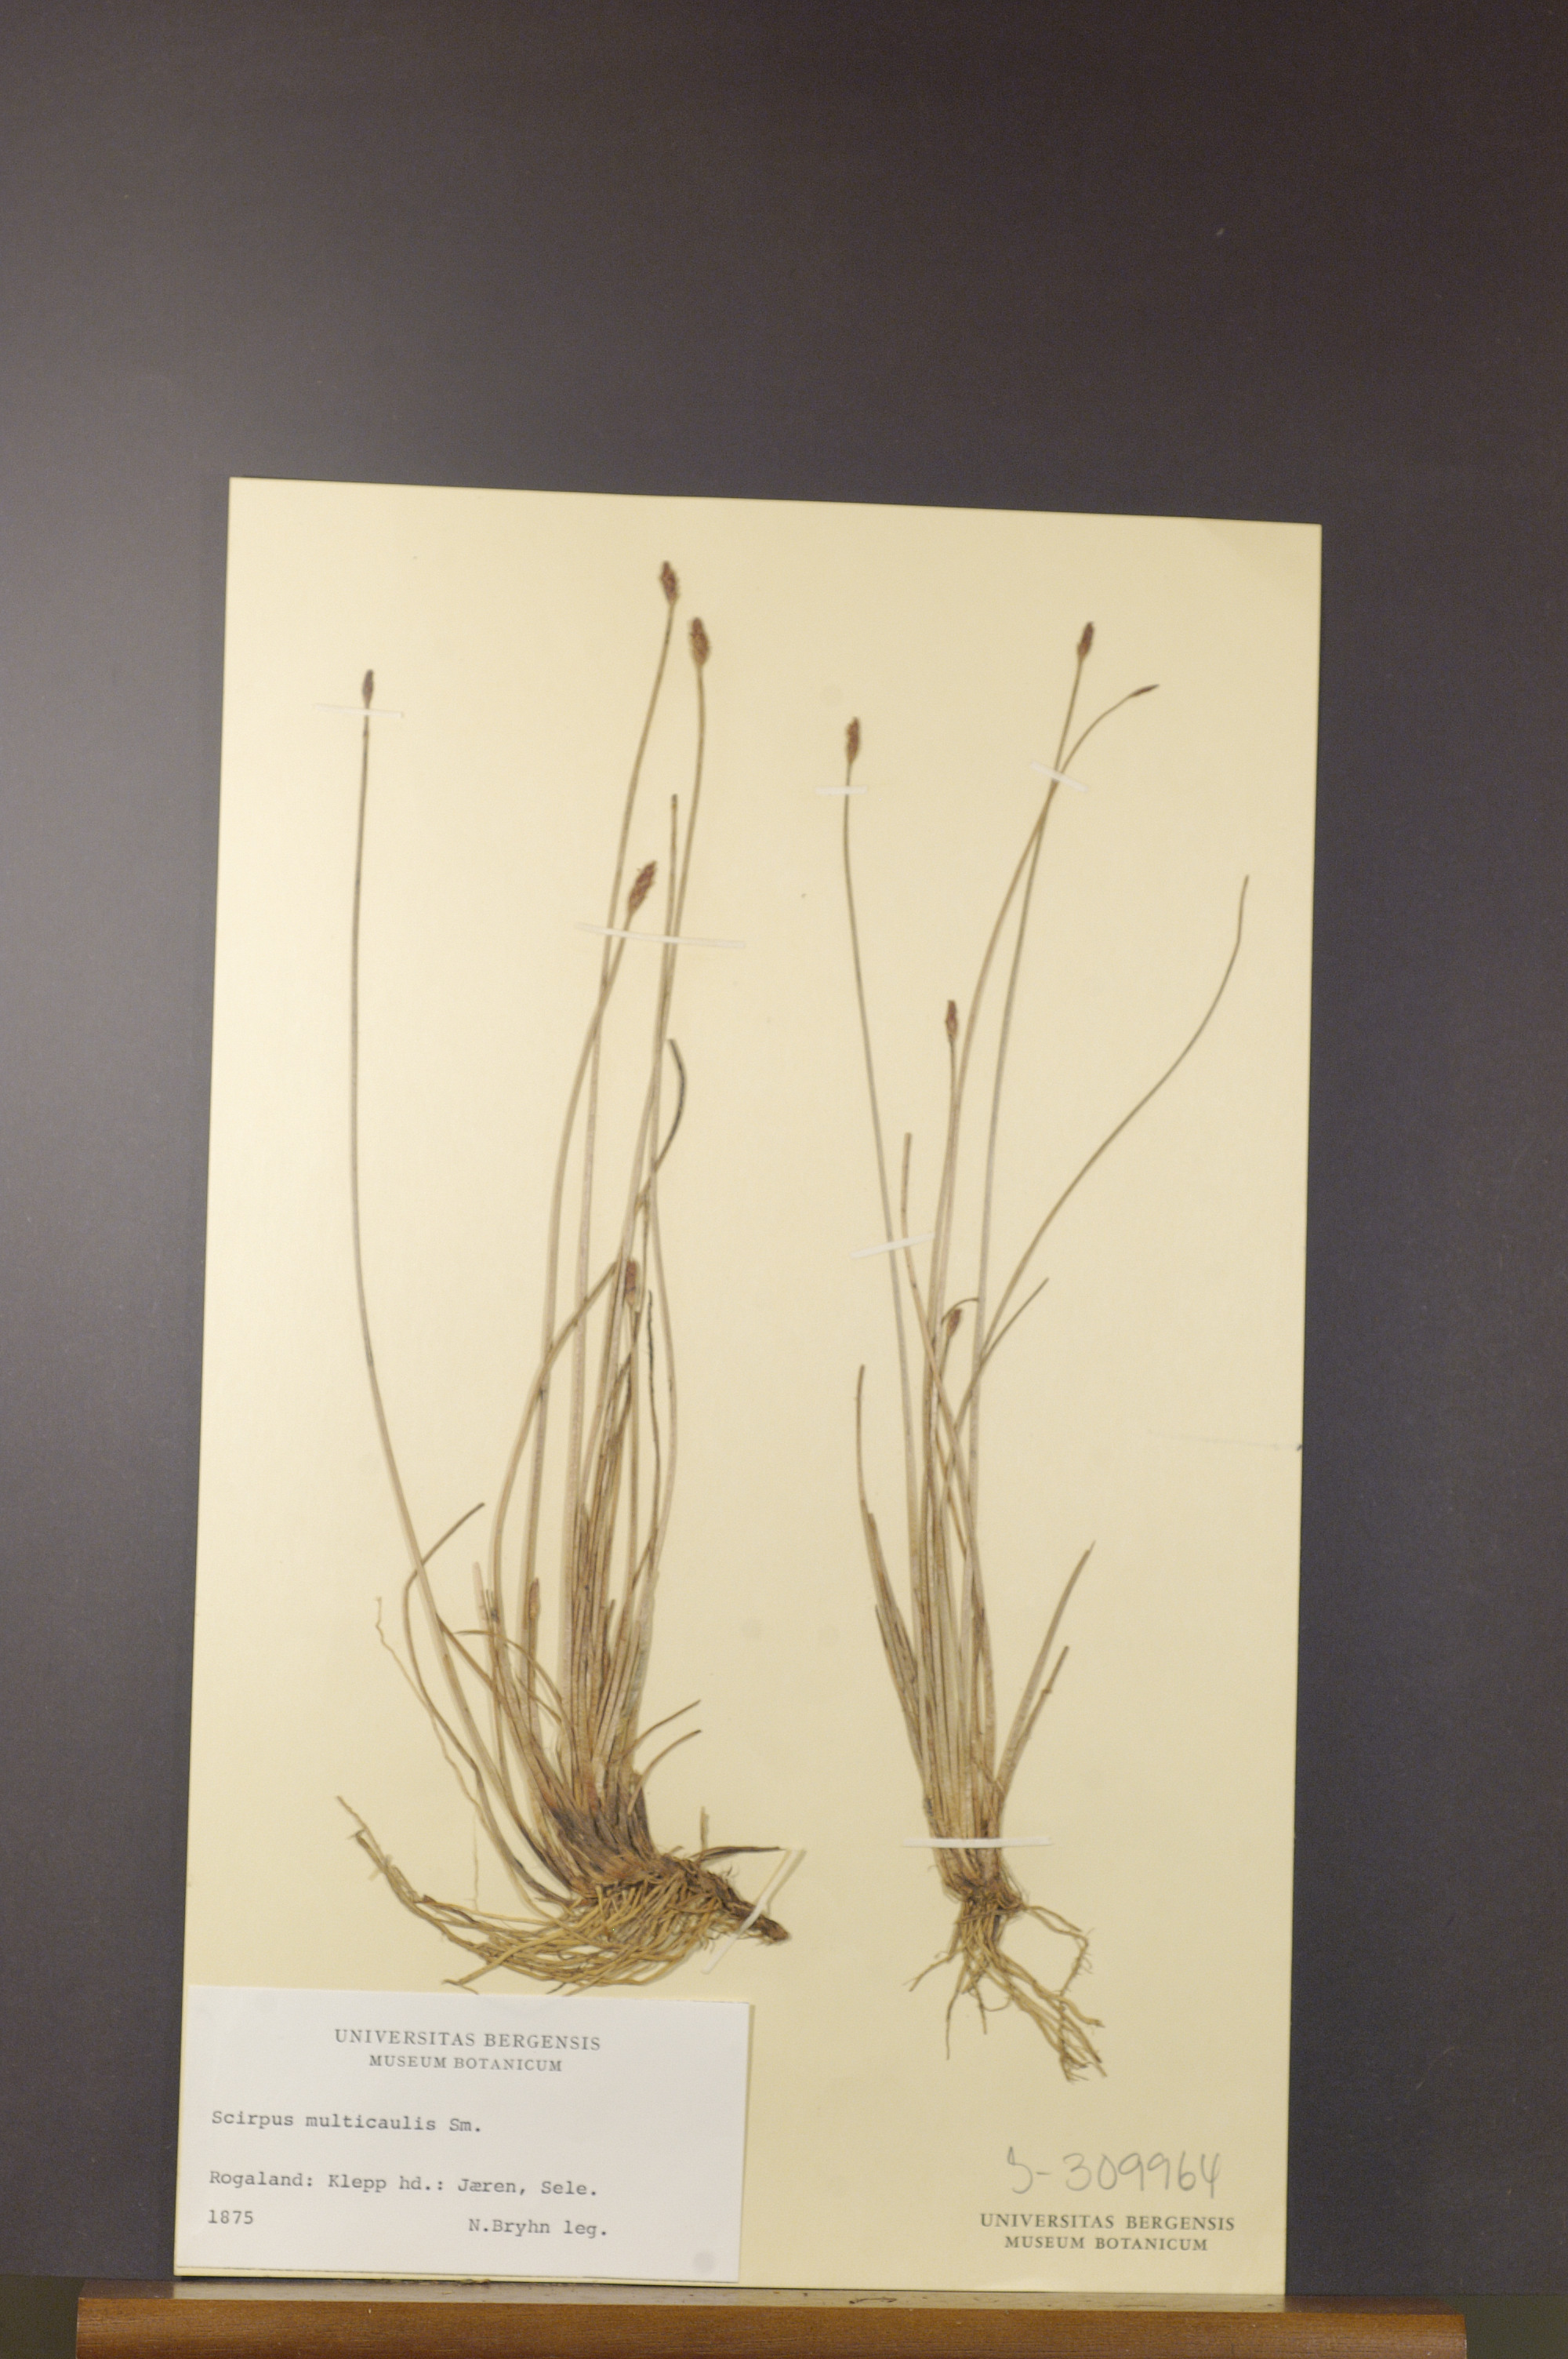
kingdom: Plantae
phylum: Tracheophyta
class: Liliopsida
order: Poales
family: Cyperaceae
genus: Eleocharis
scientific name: Eleocharis multicaulis
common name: Many-stalked spike-rush
